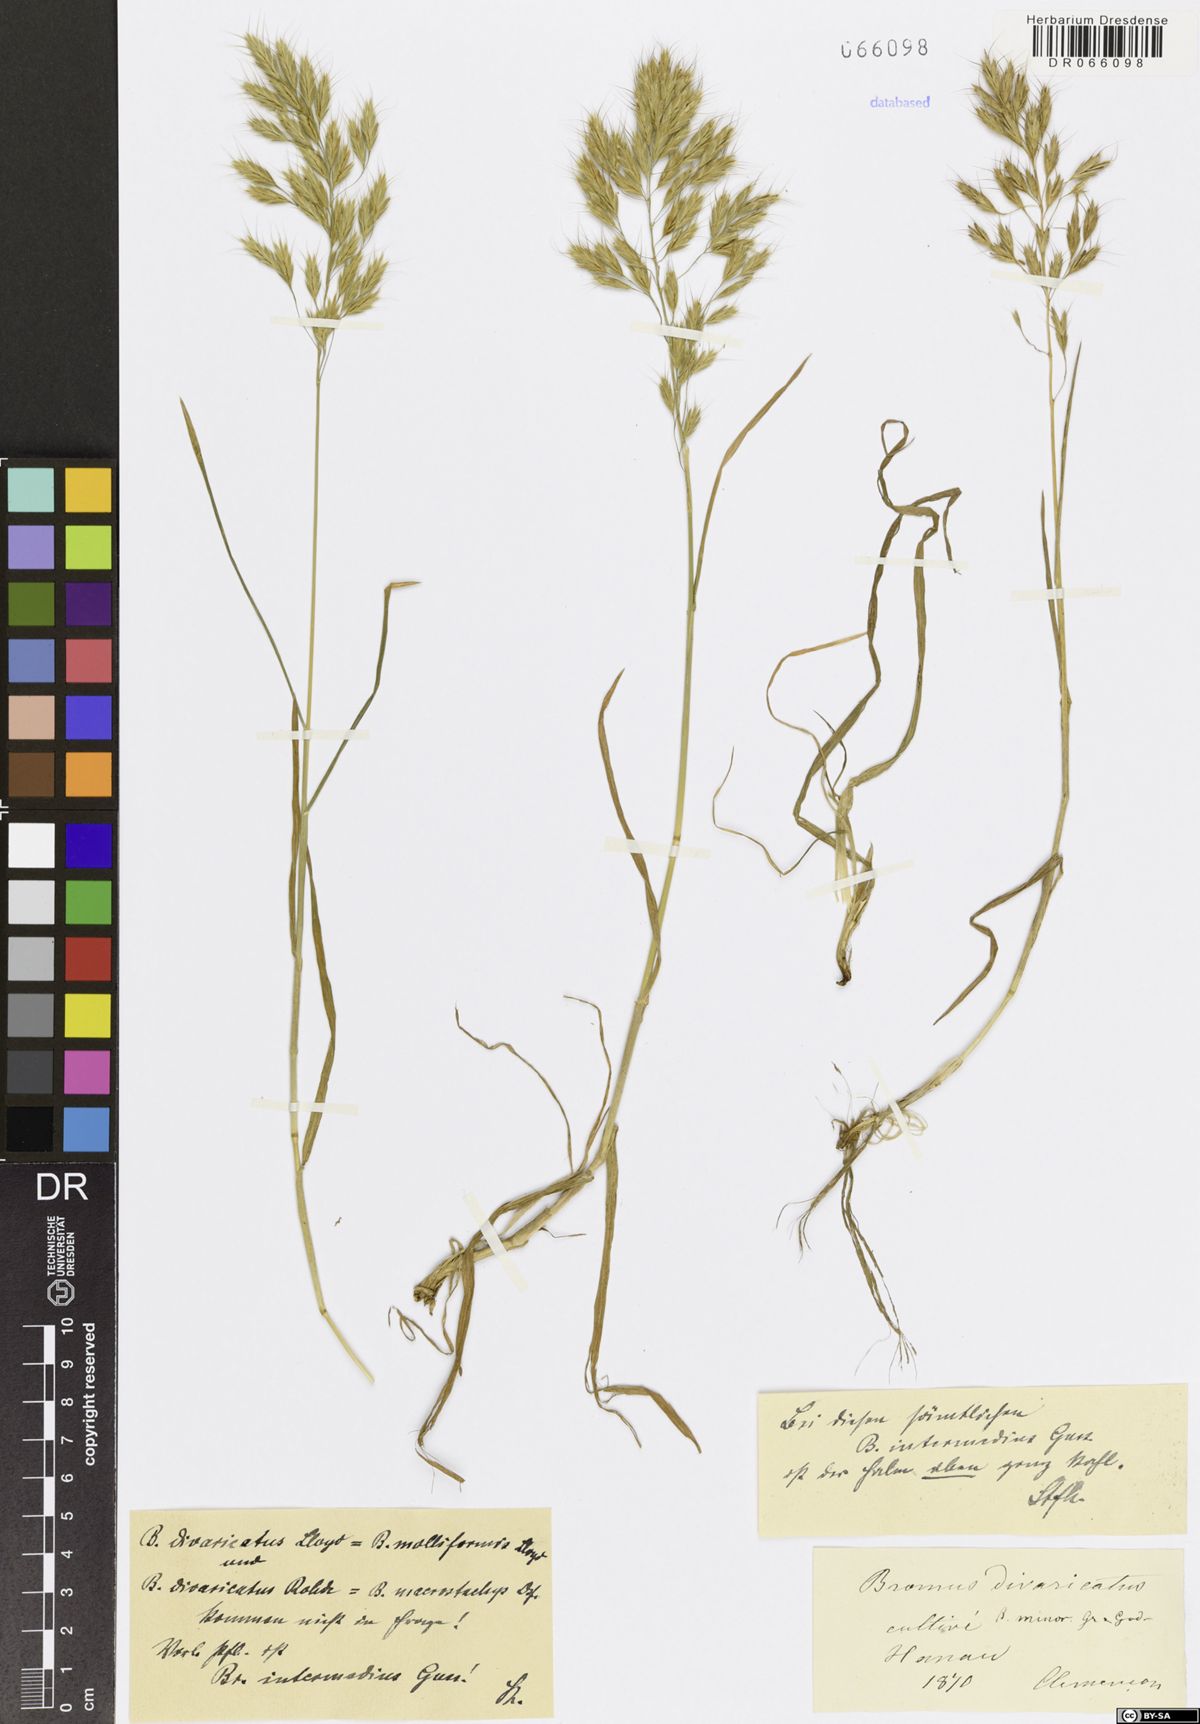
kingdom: Plantae
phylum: Tracheophyta
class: Liliopsida
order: Poales
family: Poaceae
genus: Bromus
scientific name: Bromus intermedius
